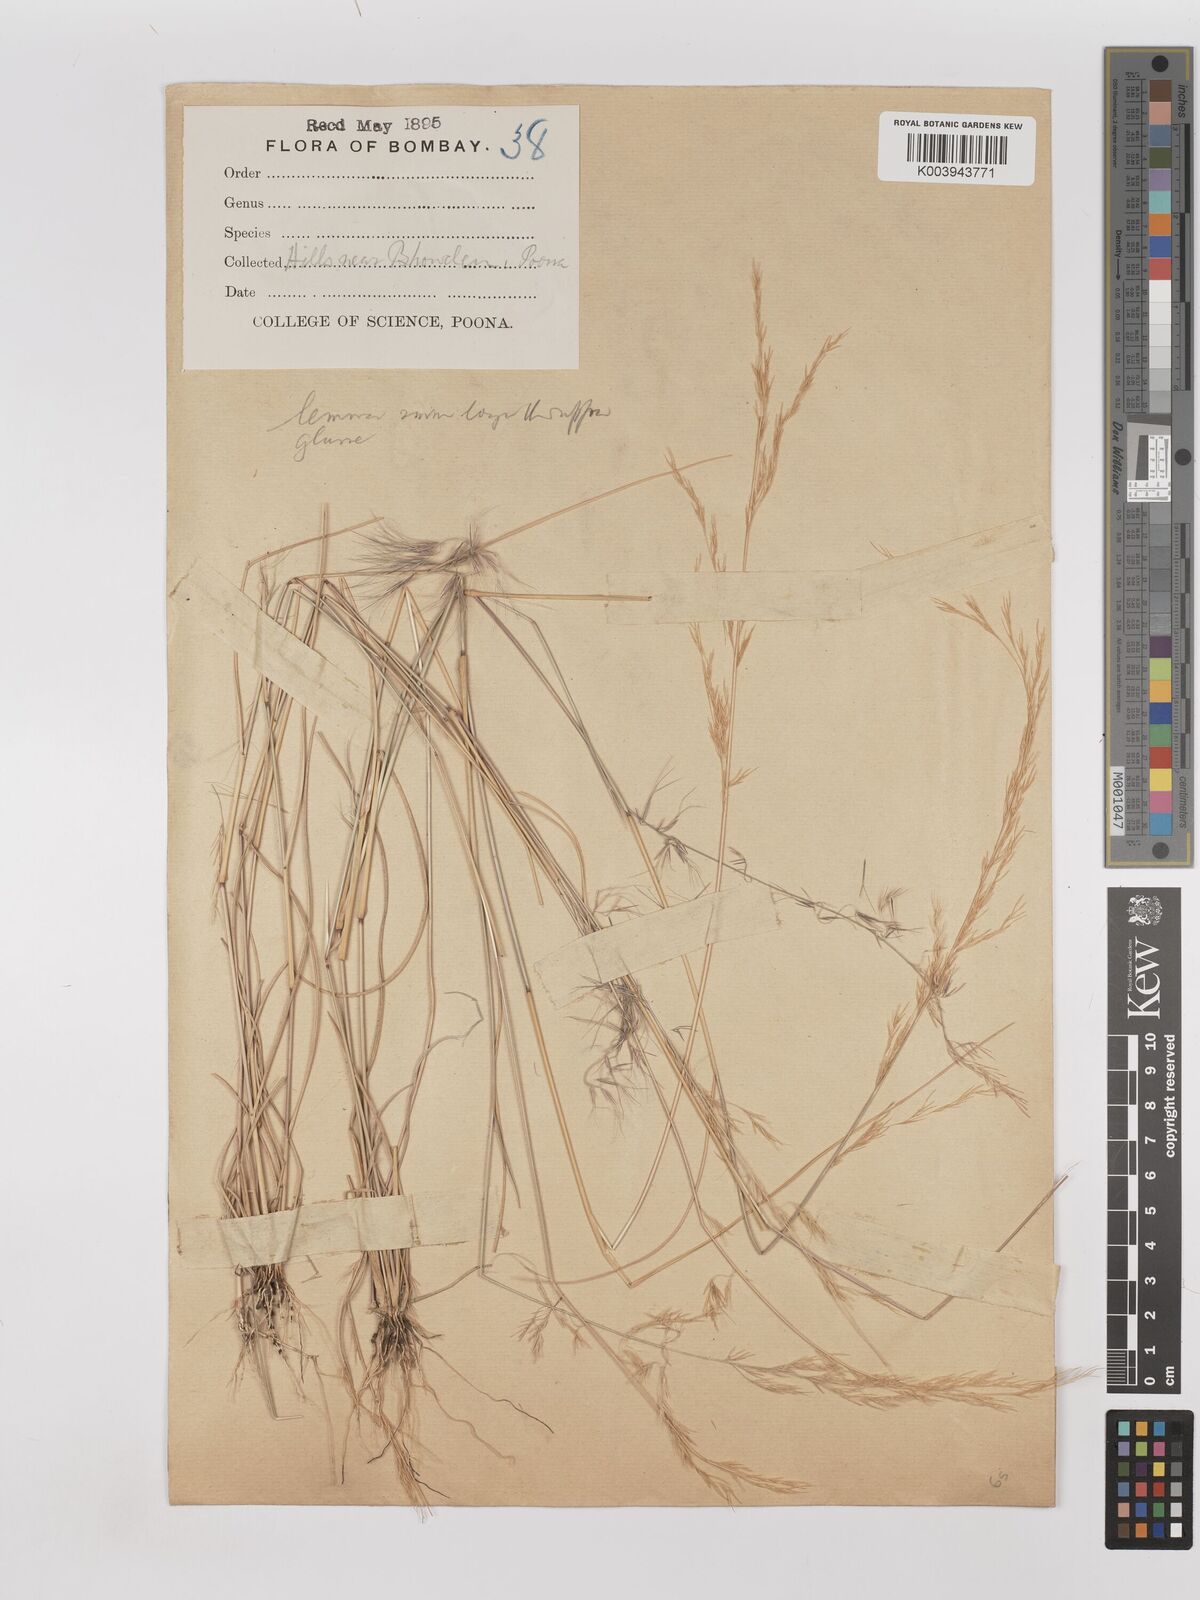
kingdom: Plantae
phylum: Tracheophyta
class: Liliopsida
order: Poales
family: Poaceae
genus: Aristida
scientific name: Aristida adscensionis
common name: Sixweeks threeawn
